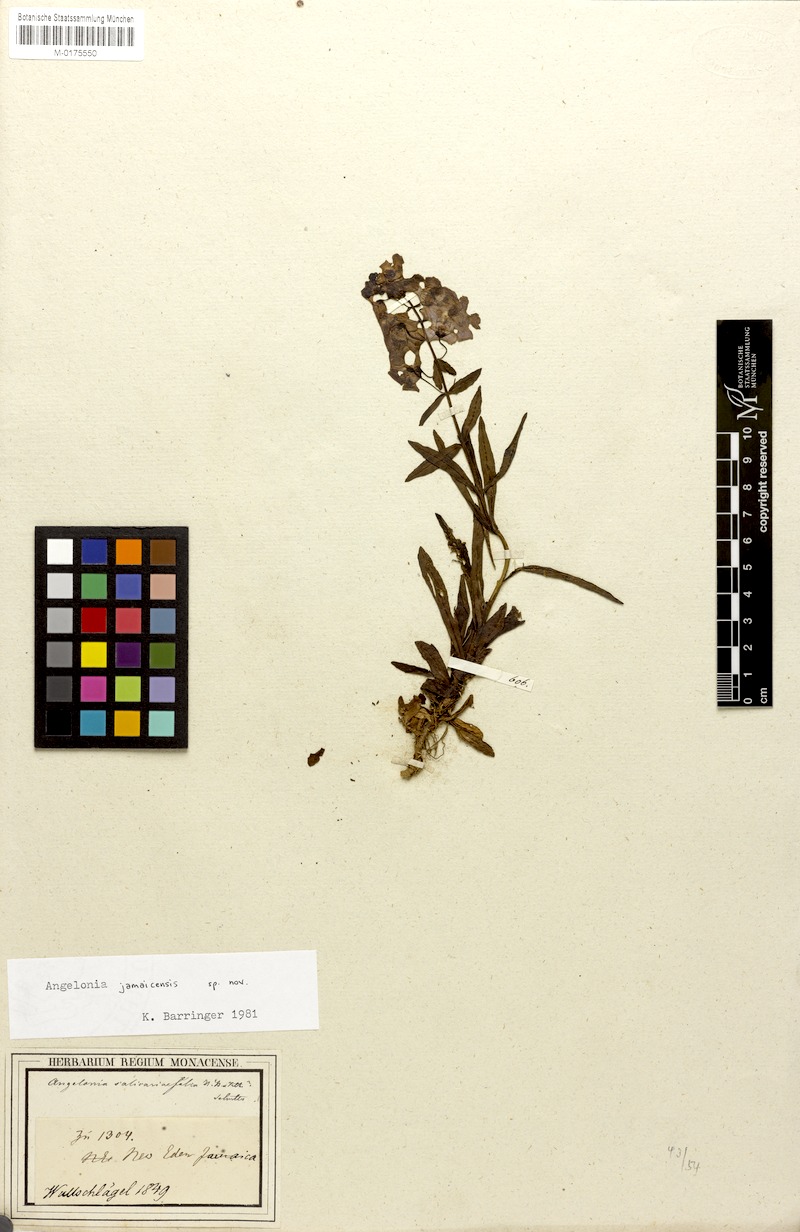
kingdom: Plantae
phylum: Tracheophyta
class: Magnoliopsida
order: Lamiales
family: Plantaginaceae
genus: Angelonia
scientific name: Angelonia
